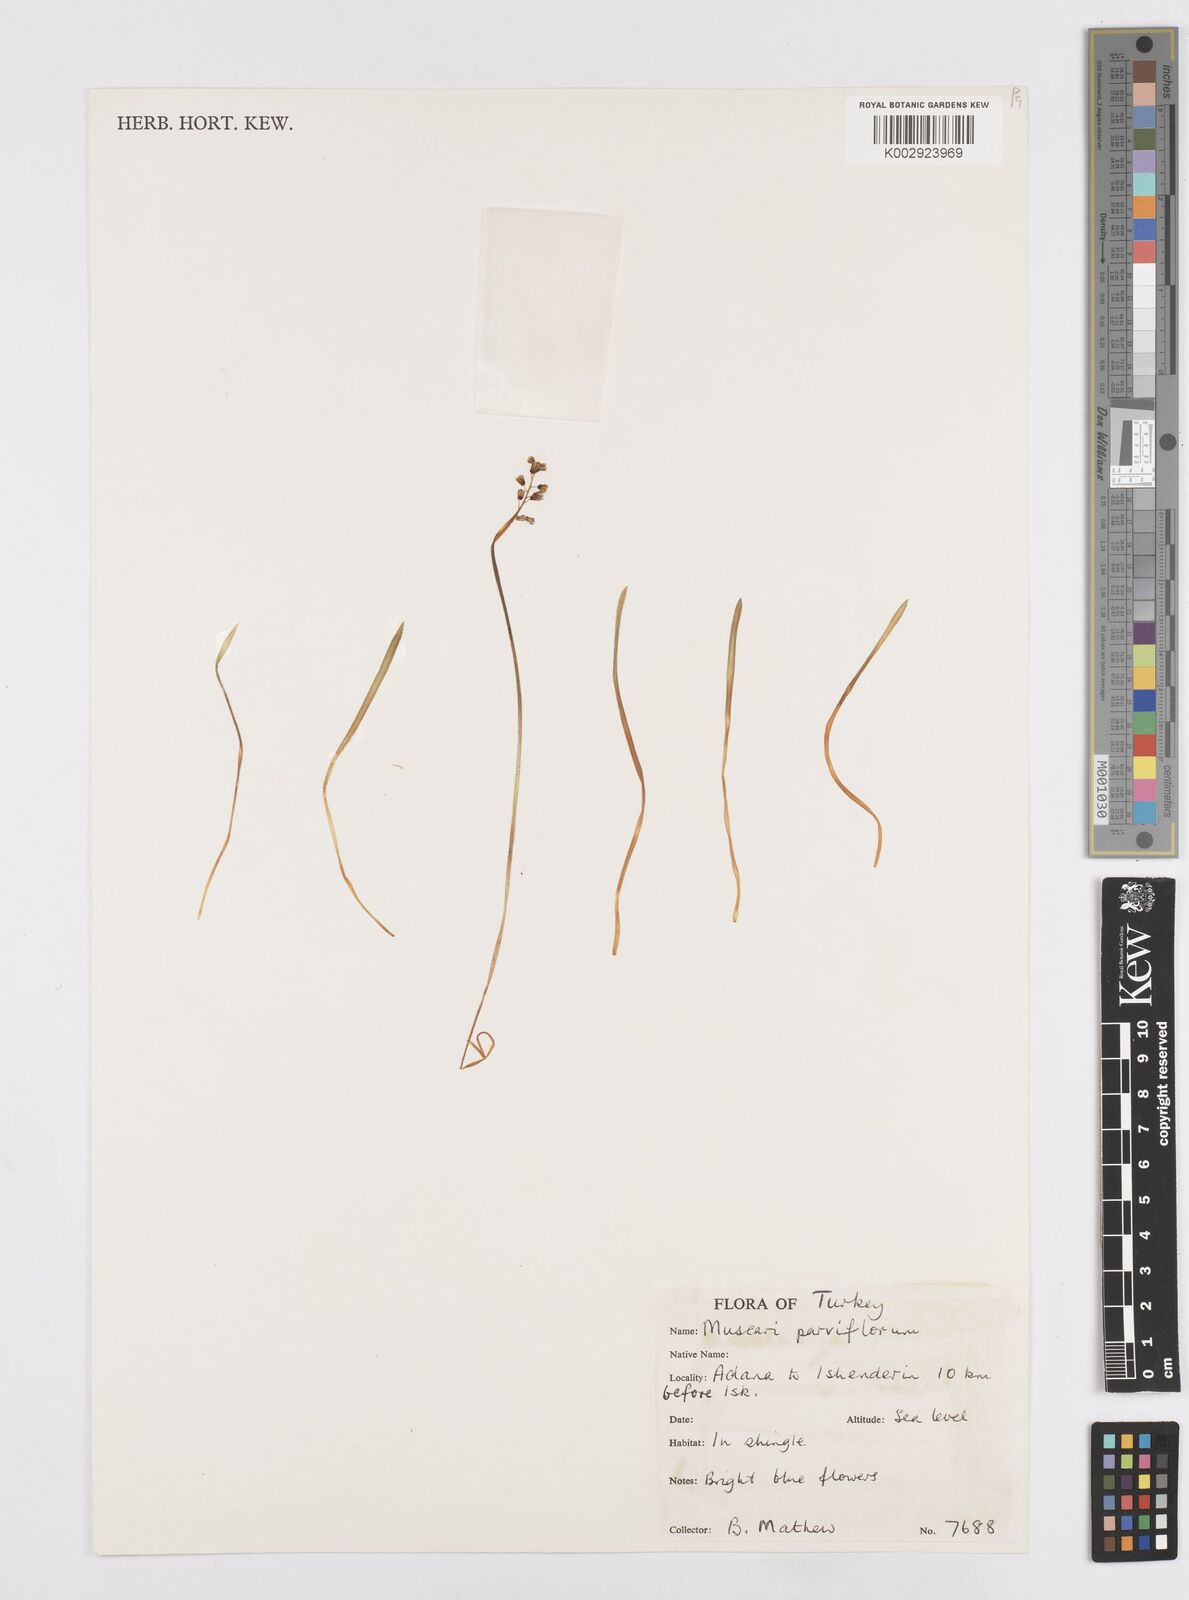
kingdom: Plantae
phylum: Tracheophyta
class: Liliopsida
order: Asparagales
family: Asparagaceae
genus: Muscari
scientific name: Muscari parviflorum
